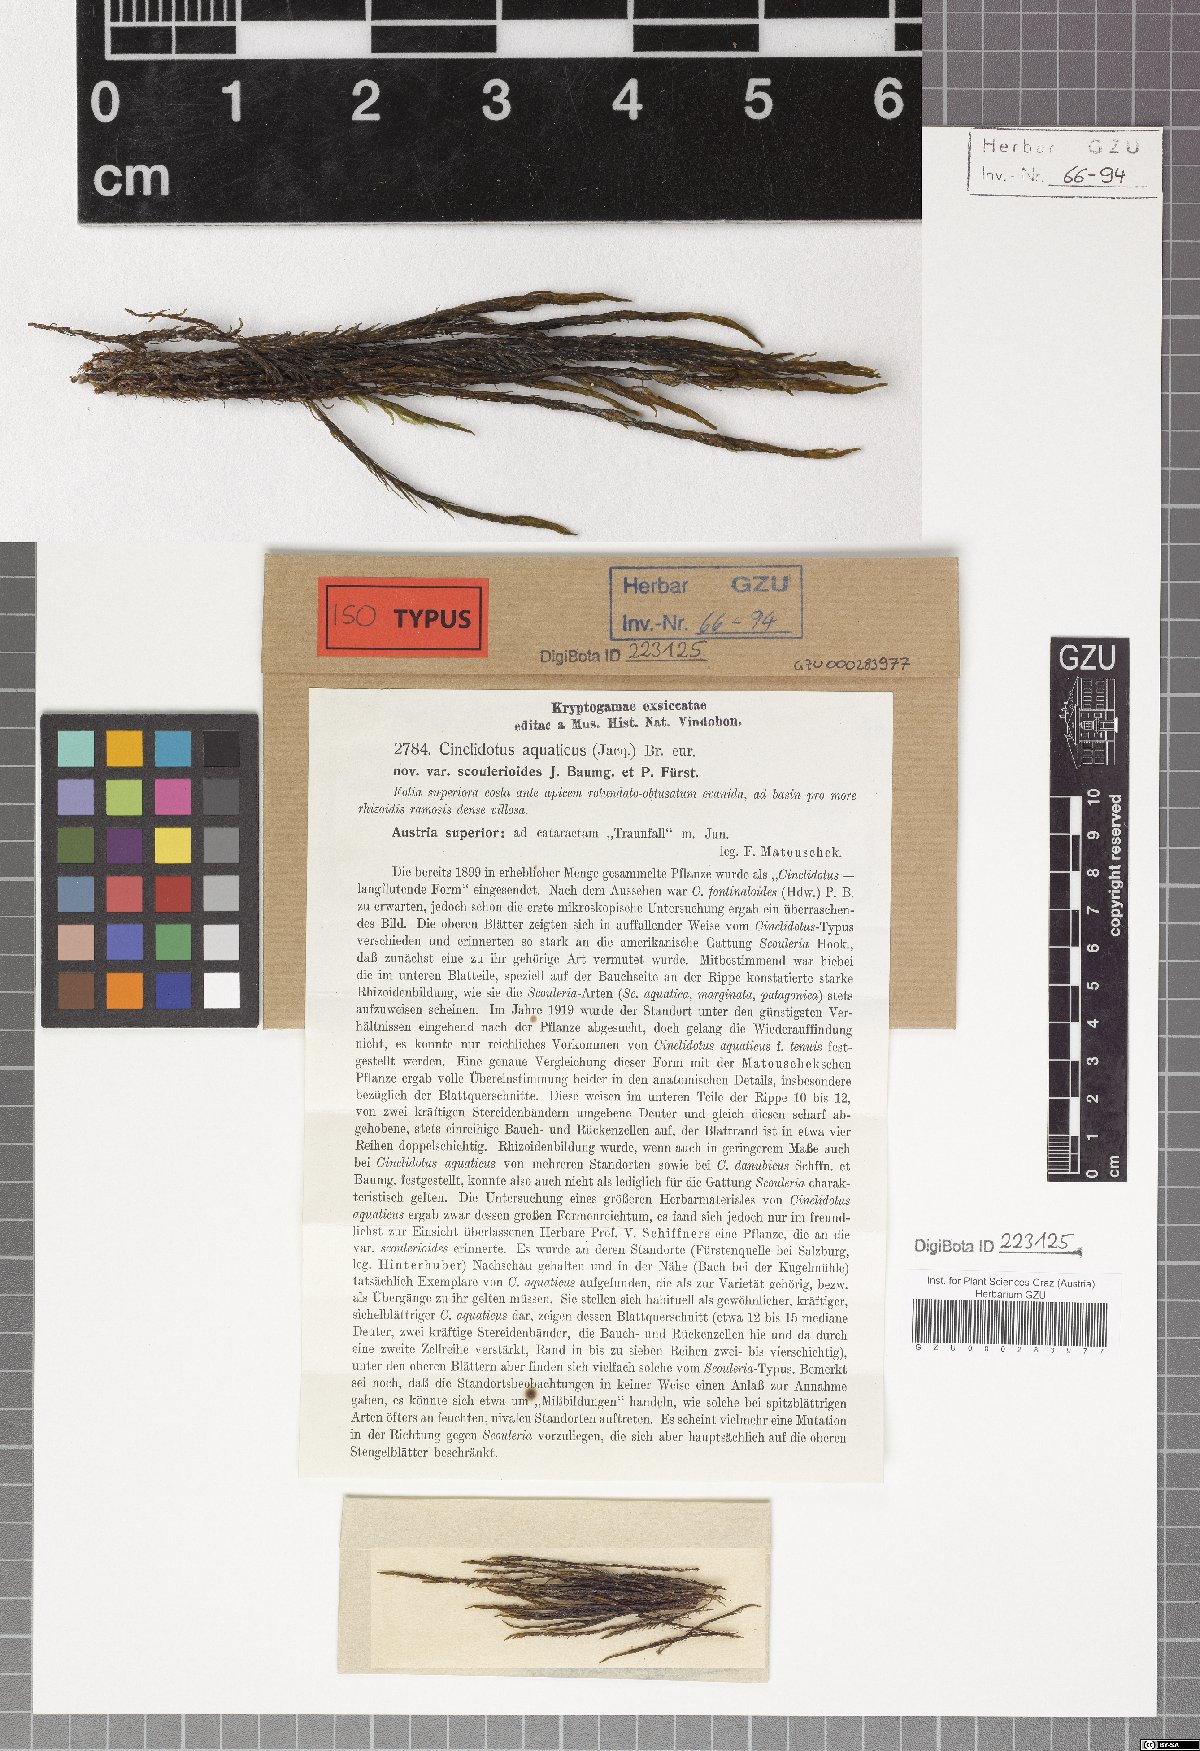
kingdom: Plantae
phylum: Bryophyta
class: Bryopsida
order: Pottiales
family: Pottiaceae
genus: Cinclidotus
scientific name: Cinclidotus aquaticus
